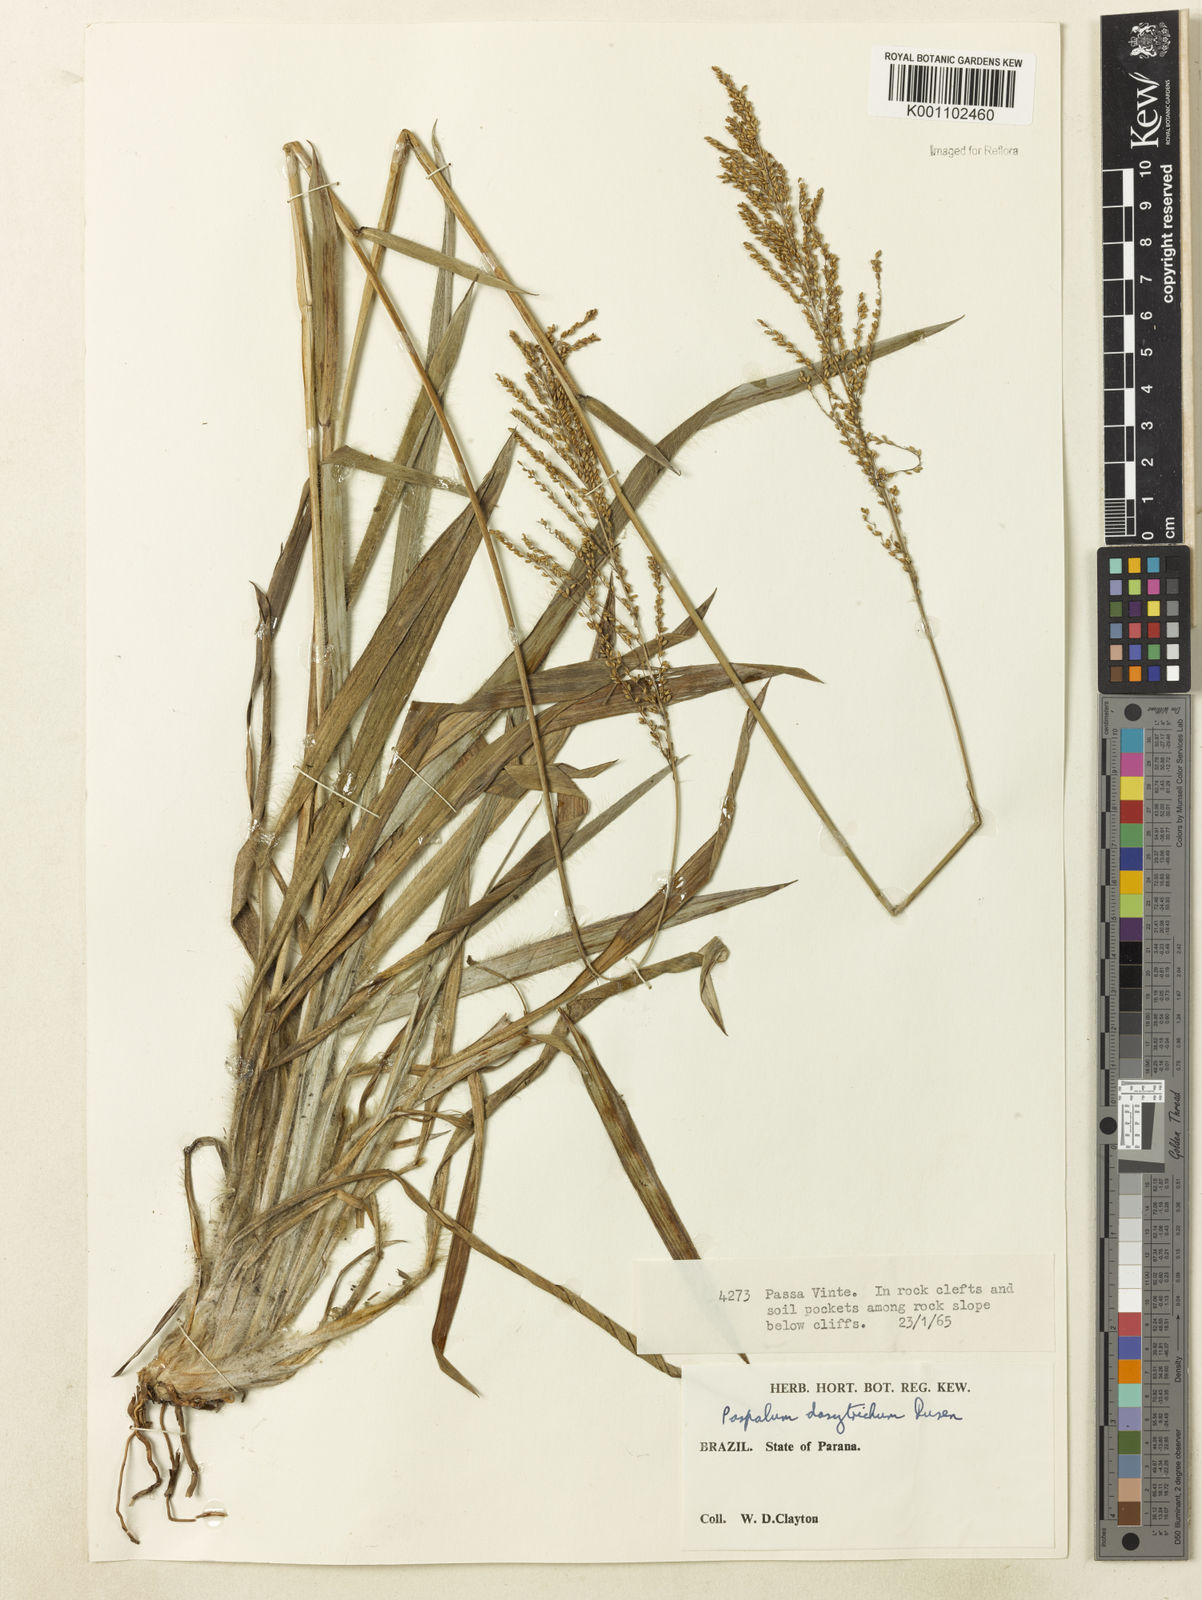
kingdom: Plantae
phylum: Tracheophyta
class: Liliopsida
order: Poales
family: Poaceae
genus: Paspalum
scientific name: Paspalum
